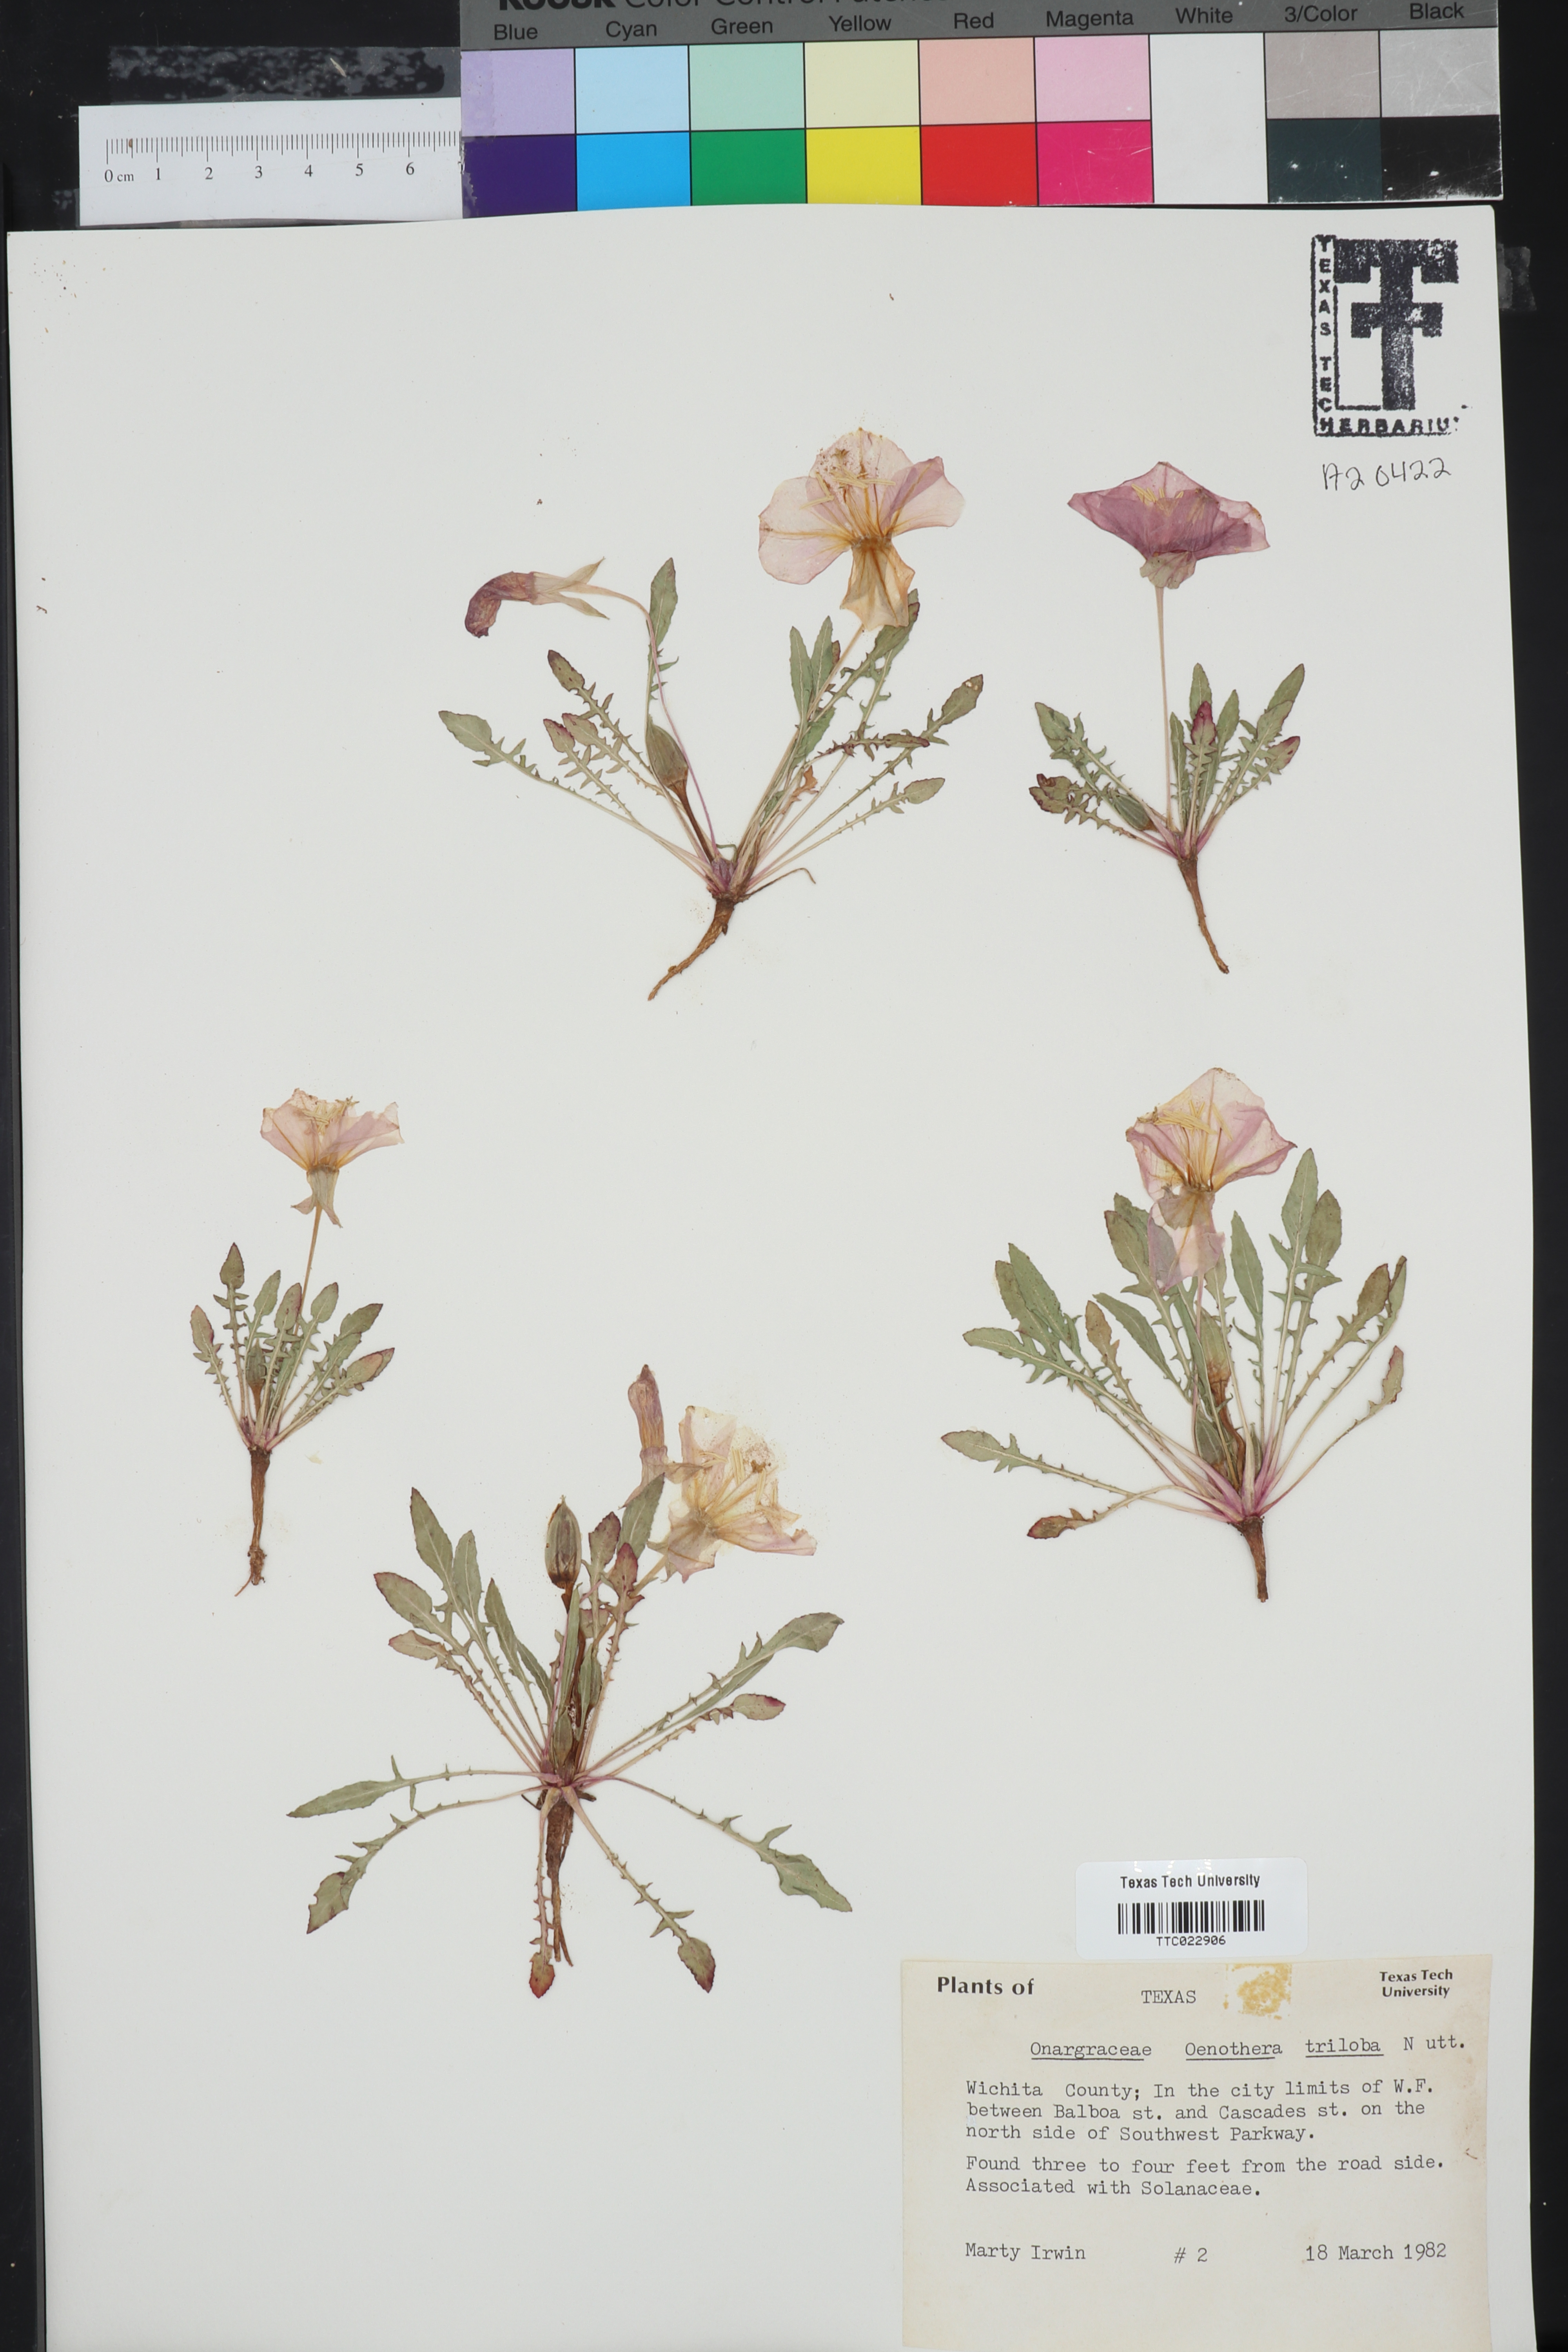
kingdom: Plantae
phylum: Tracheophyta
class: Magnoliopsida
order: Myrtales
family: Onagraceae
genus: Oenothera
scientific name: Oenothera triloba
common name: Sessile evening-primrose
